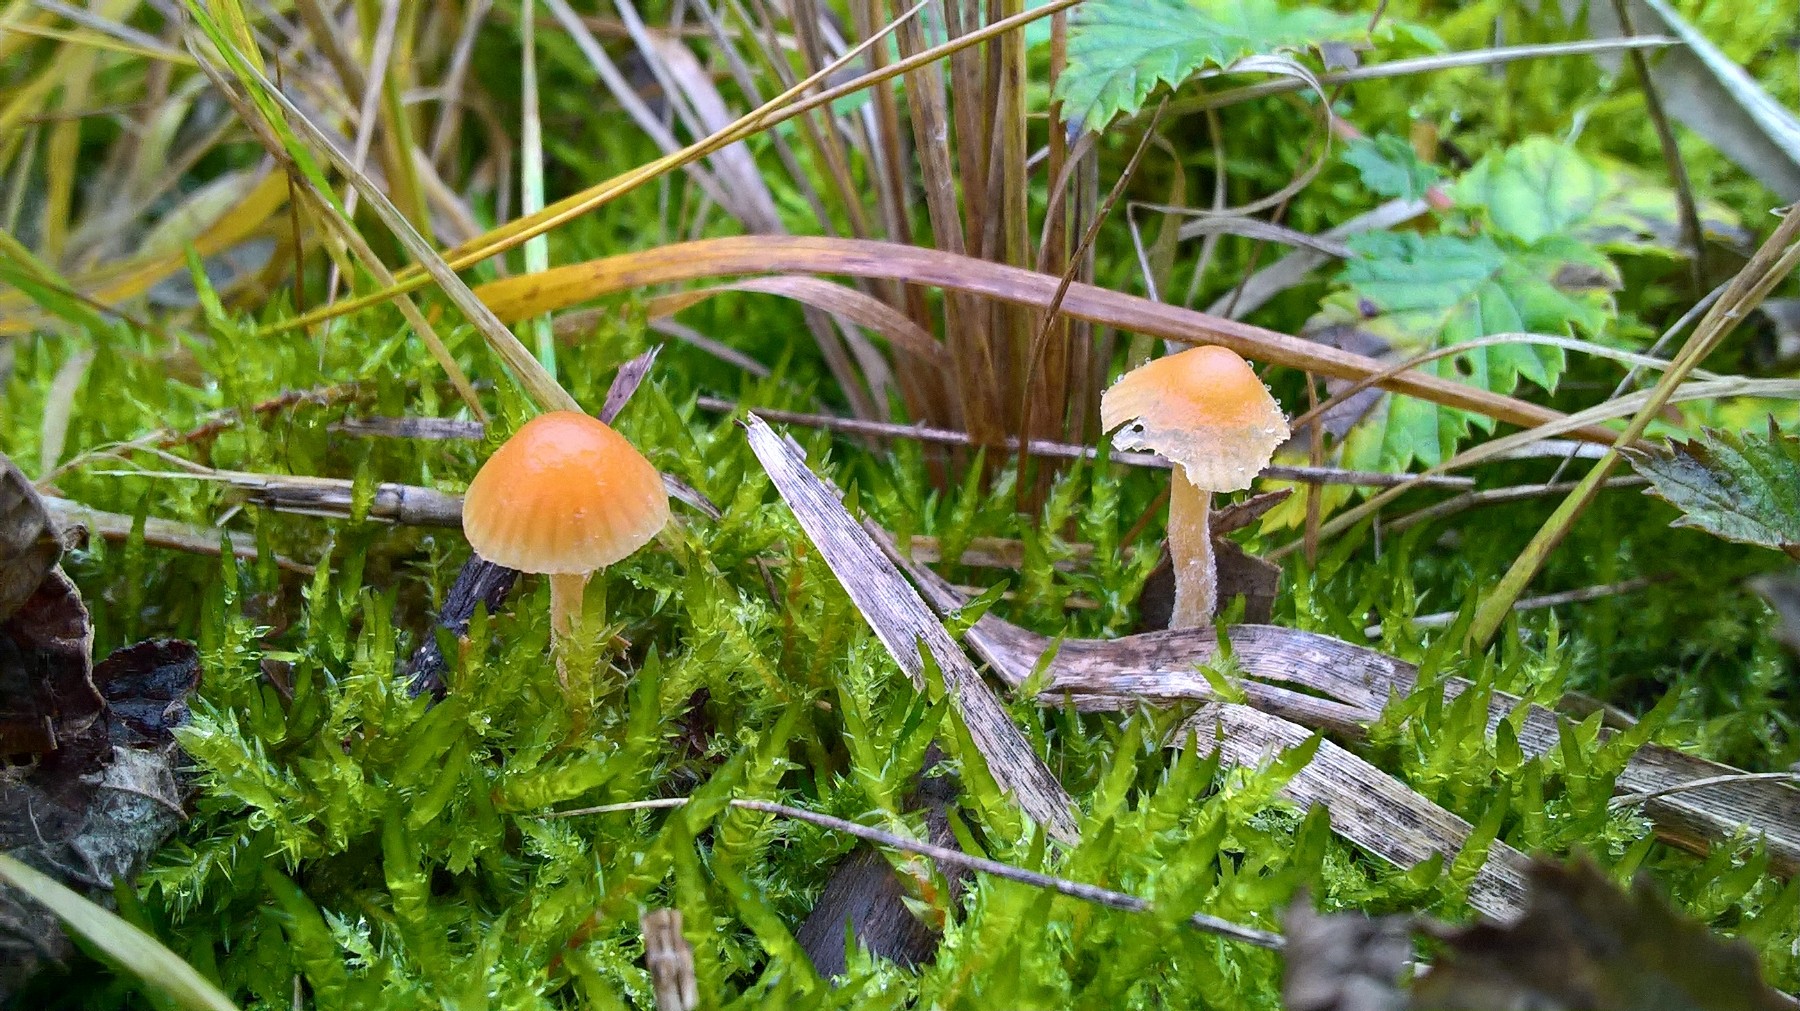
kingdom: Fungi
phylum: Basidiomycota
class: Agaricomycetes
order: Agaricales
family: Hymenogastraceae
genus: Galerina
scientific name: Galerina
